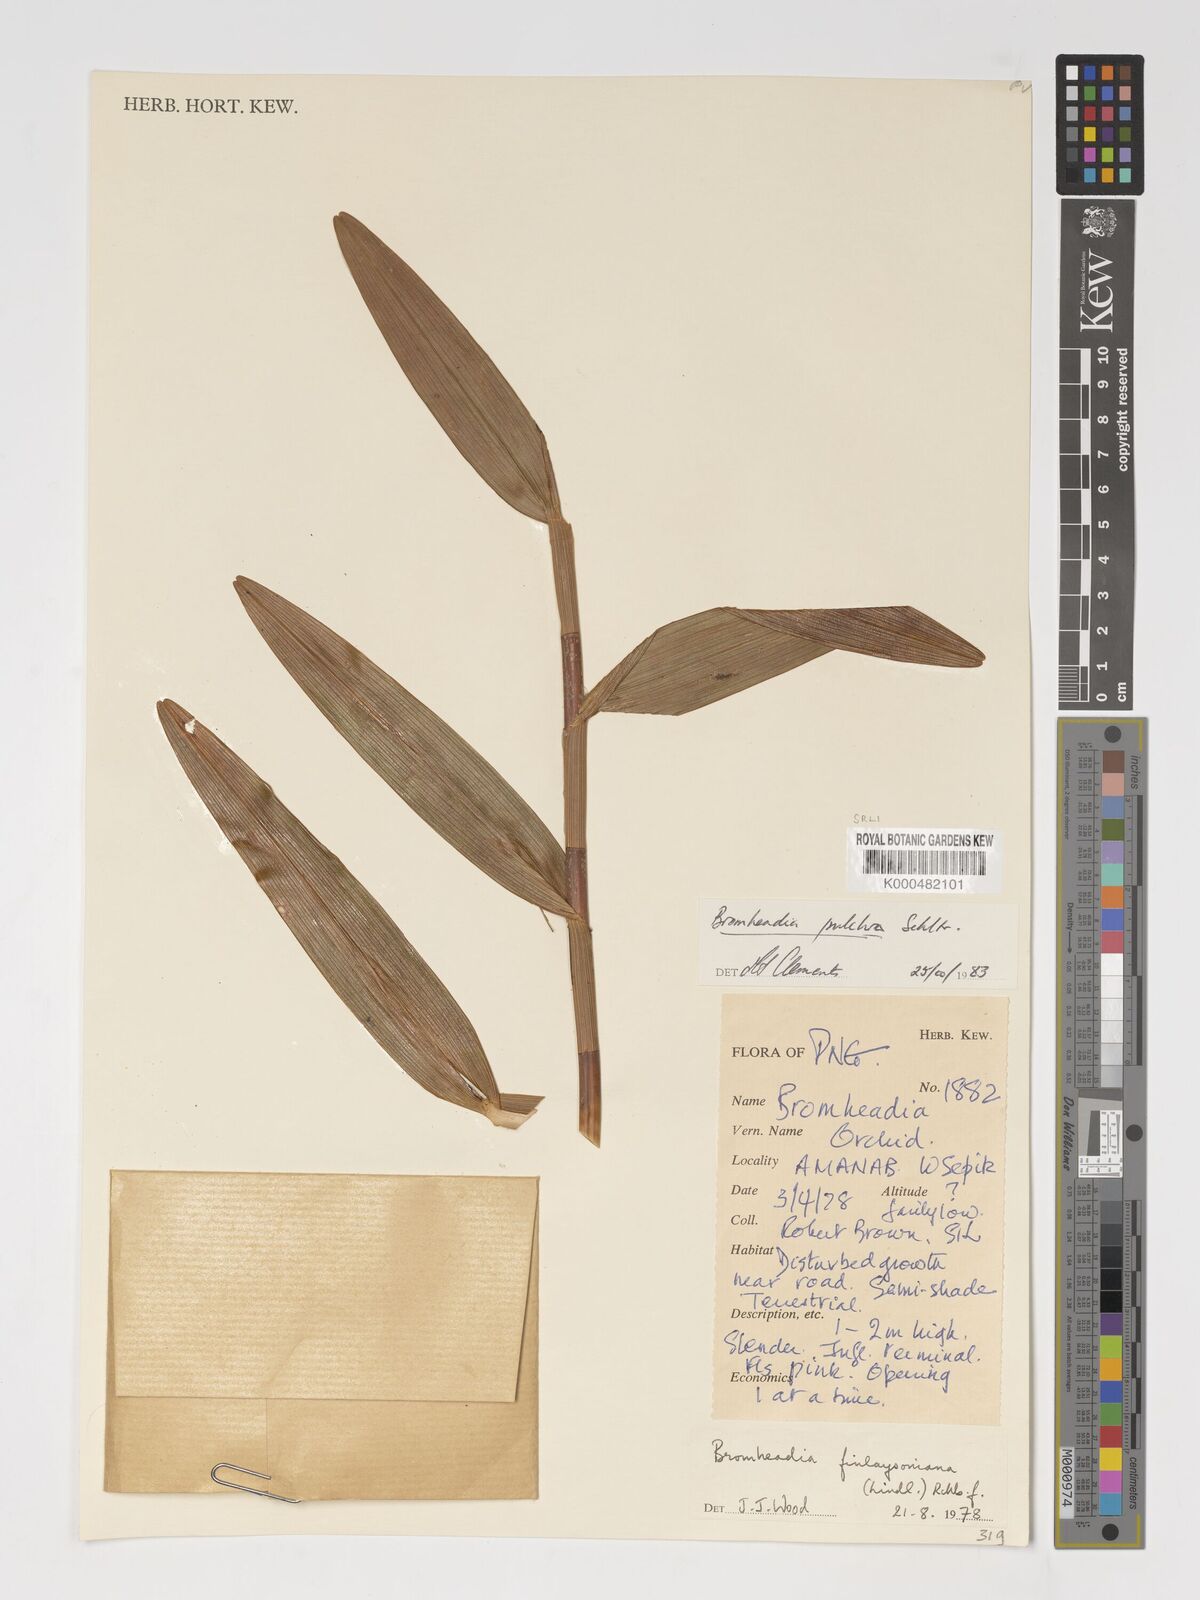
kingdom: Plantae
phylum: Tracheophyta
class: Liliopsida
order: Asparagales
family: Orchidaceae
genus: Bromheadia
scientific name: Bromheadia finlaysoniana
